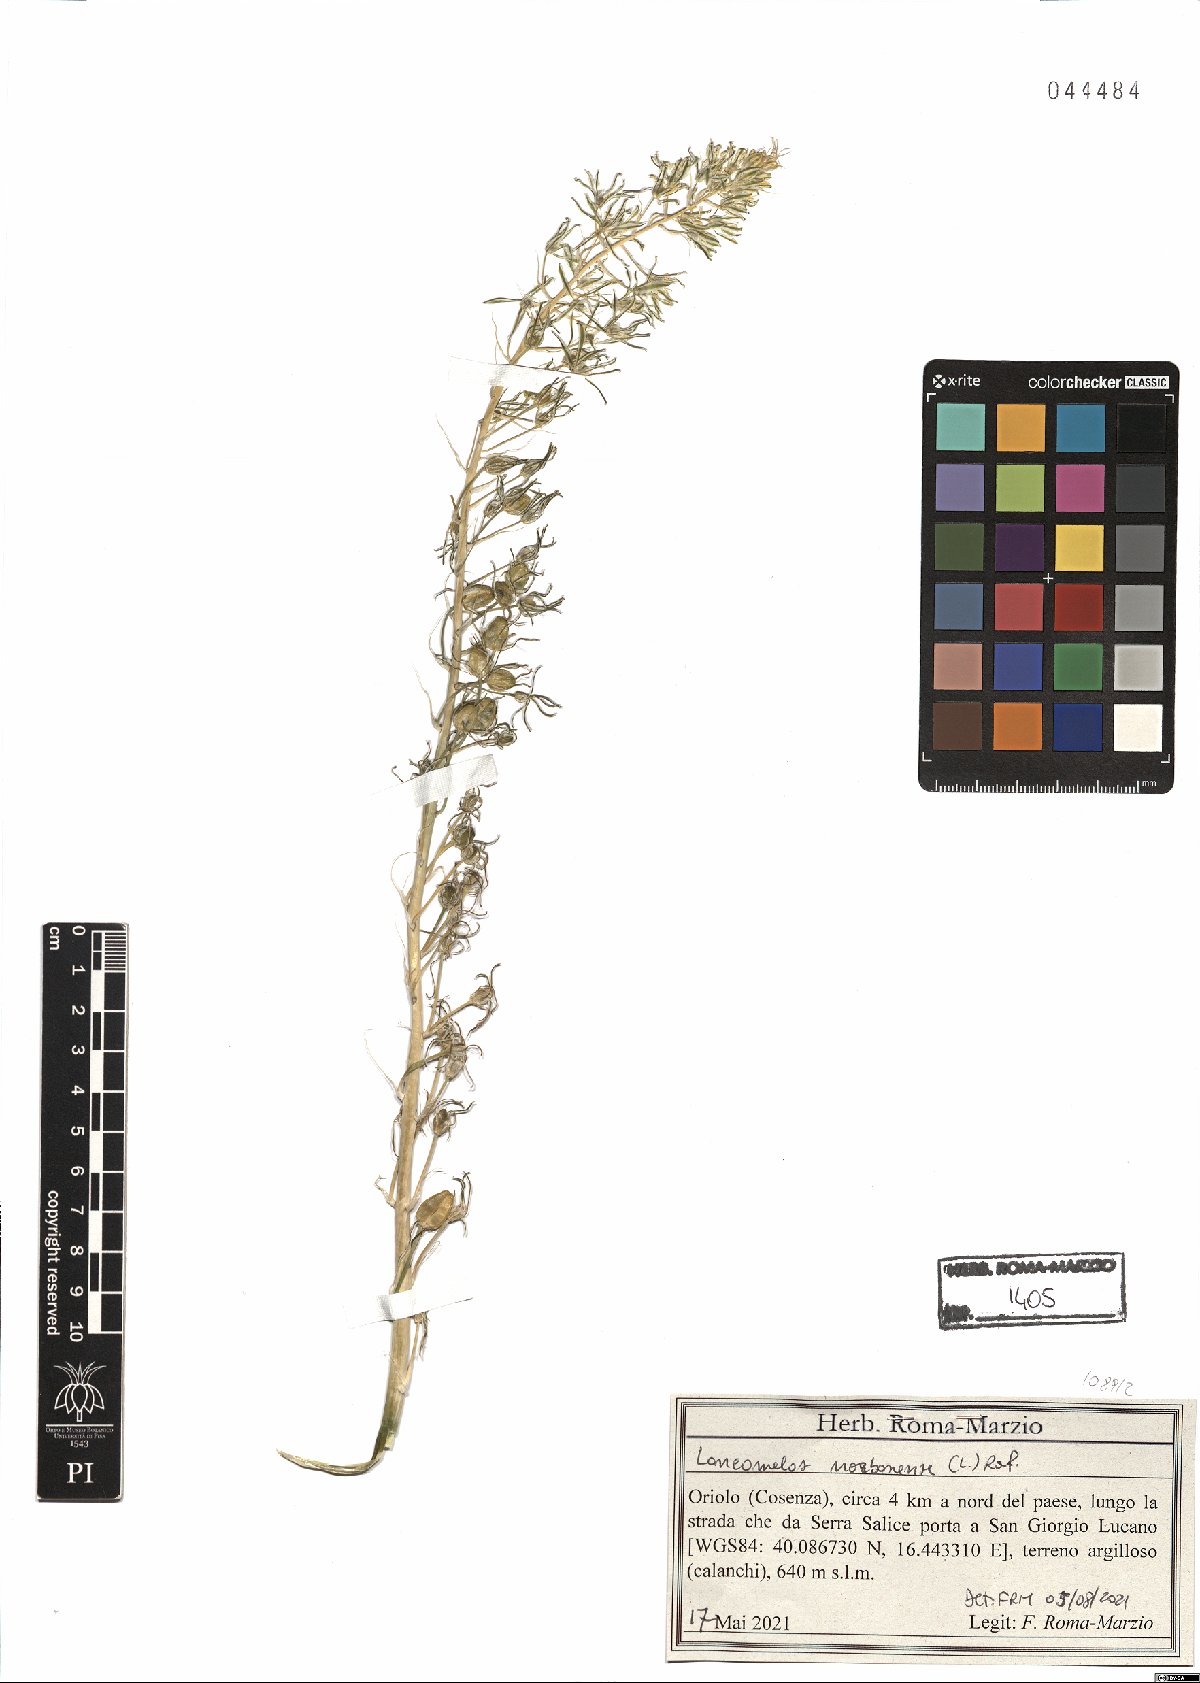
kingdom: Plantae
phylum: Tracheophyta
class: Liliopsida
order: Asparagales
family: Asparagaceae
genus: Ornithogalum
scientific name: Ornithogalum narbonense
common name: Bath-asparagus
